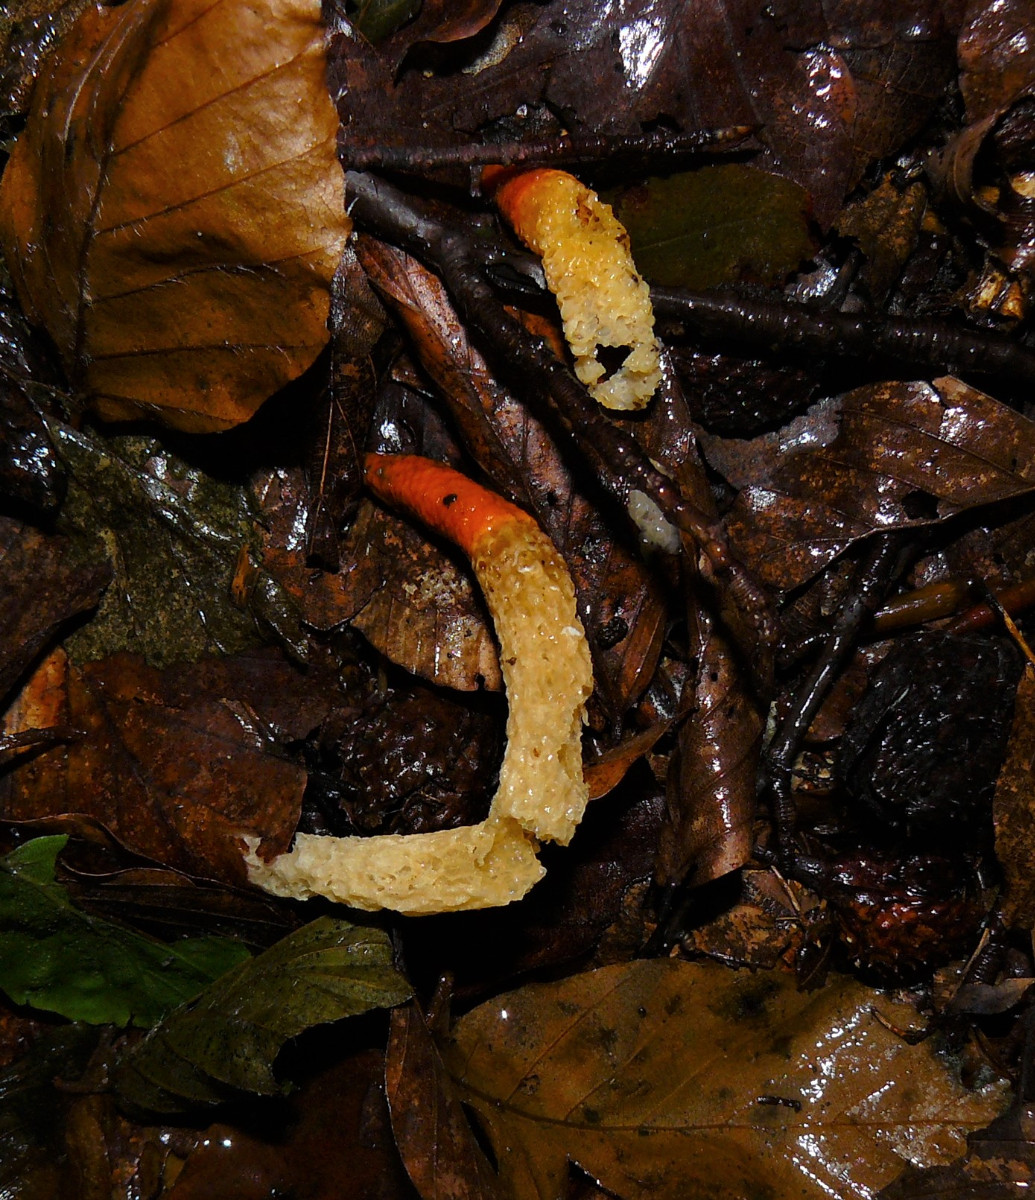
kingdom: Fungi
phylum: Basidiomycota
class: Agaricomycetes
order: Phallales
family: Phallaceae
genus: Mutinus
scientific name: Mutinus caninus
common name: hunde-stinksvamp
